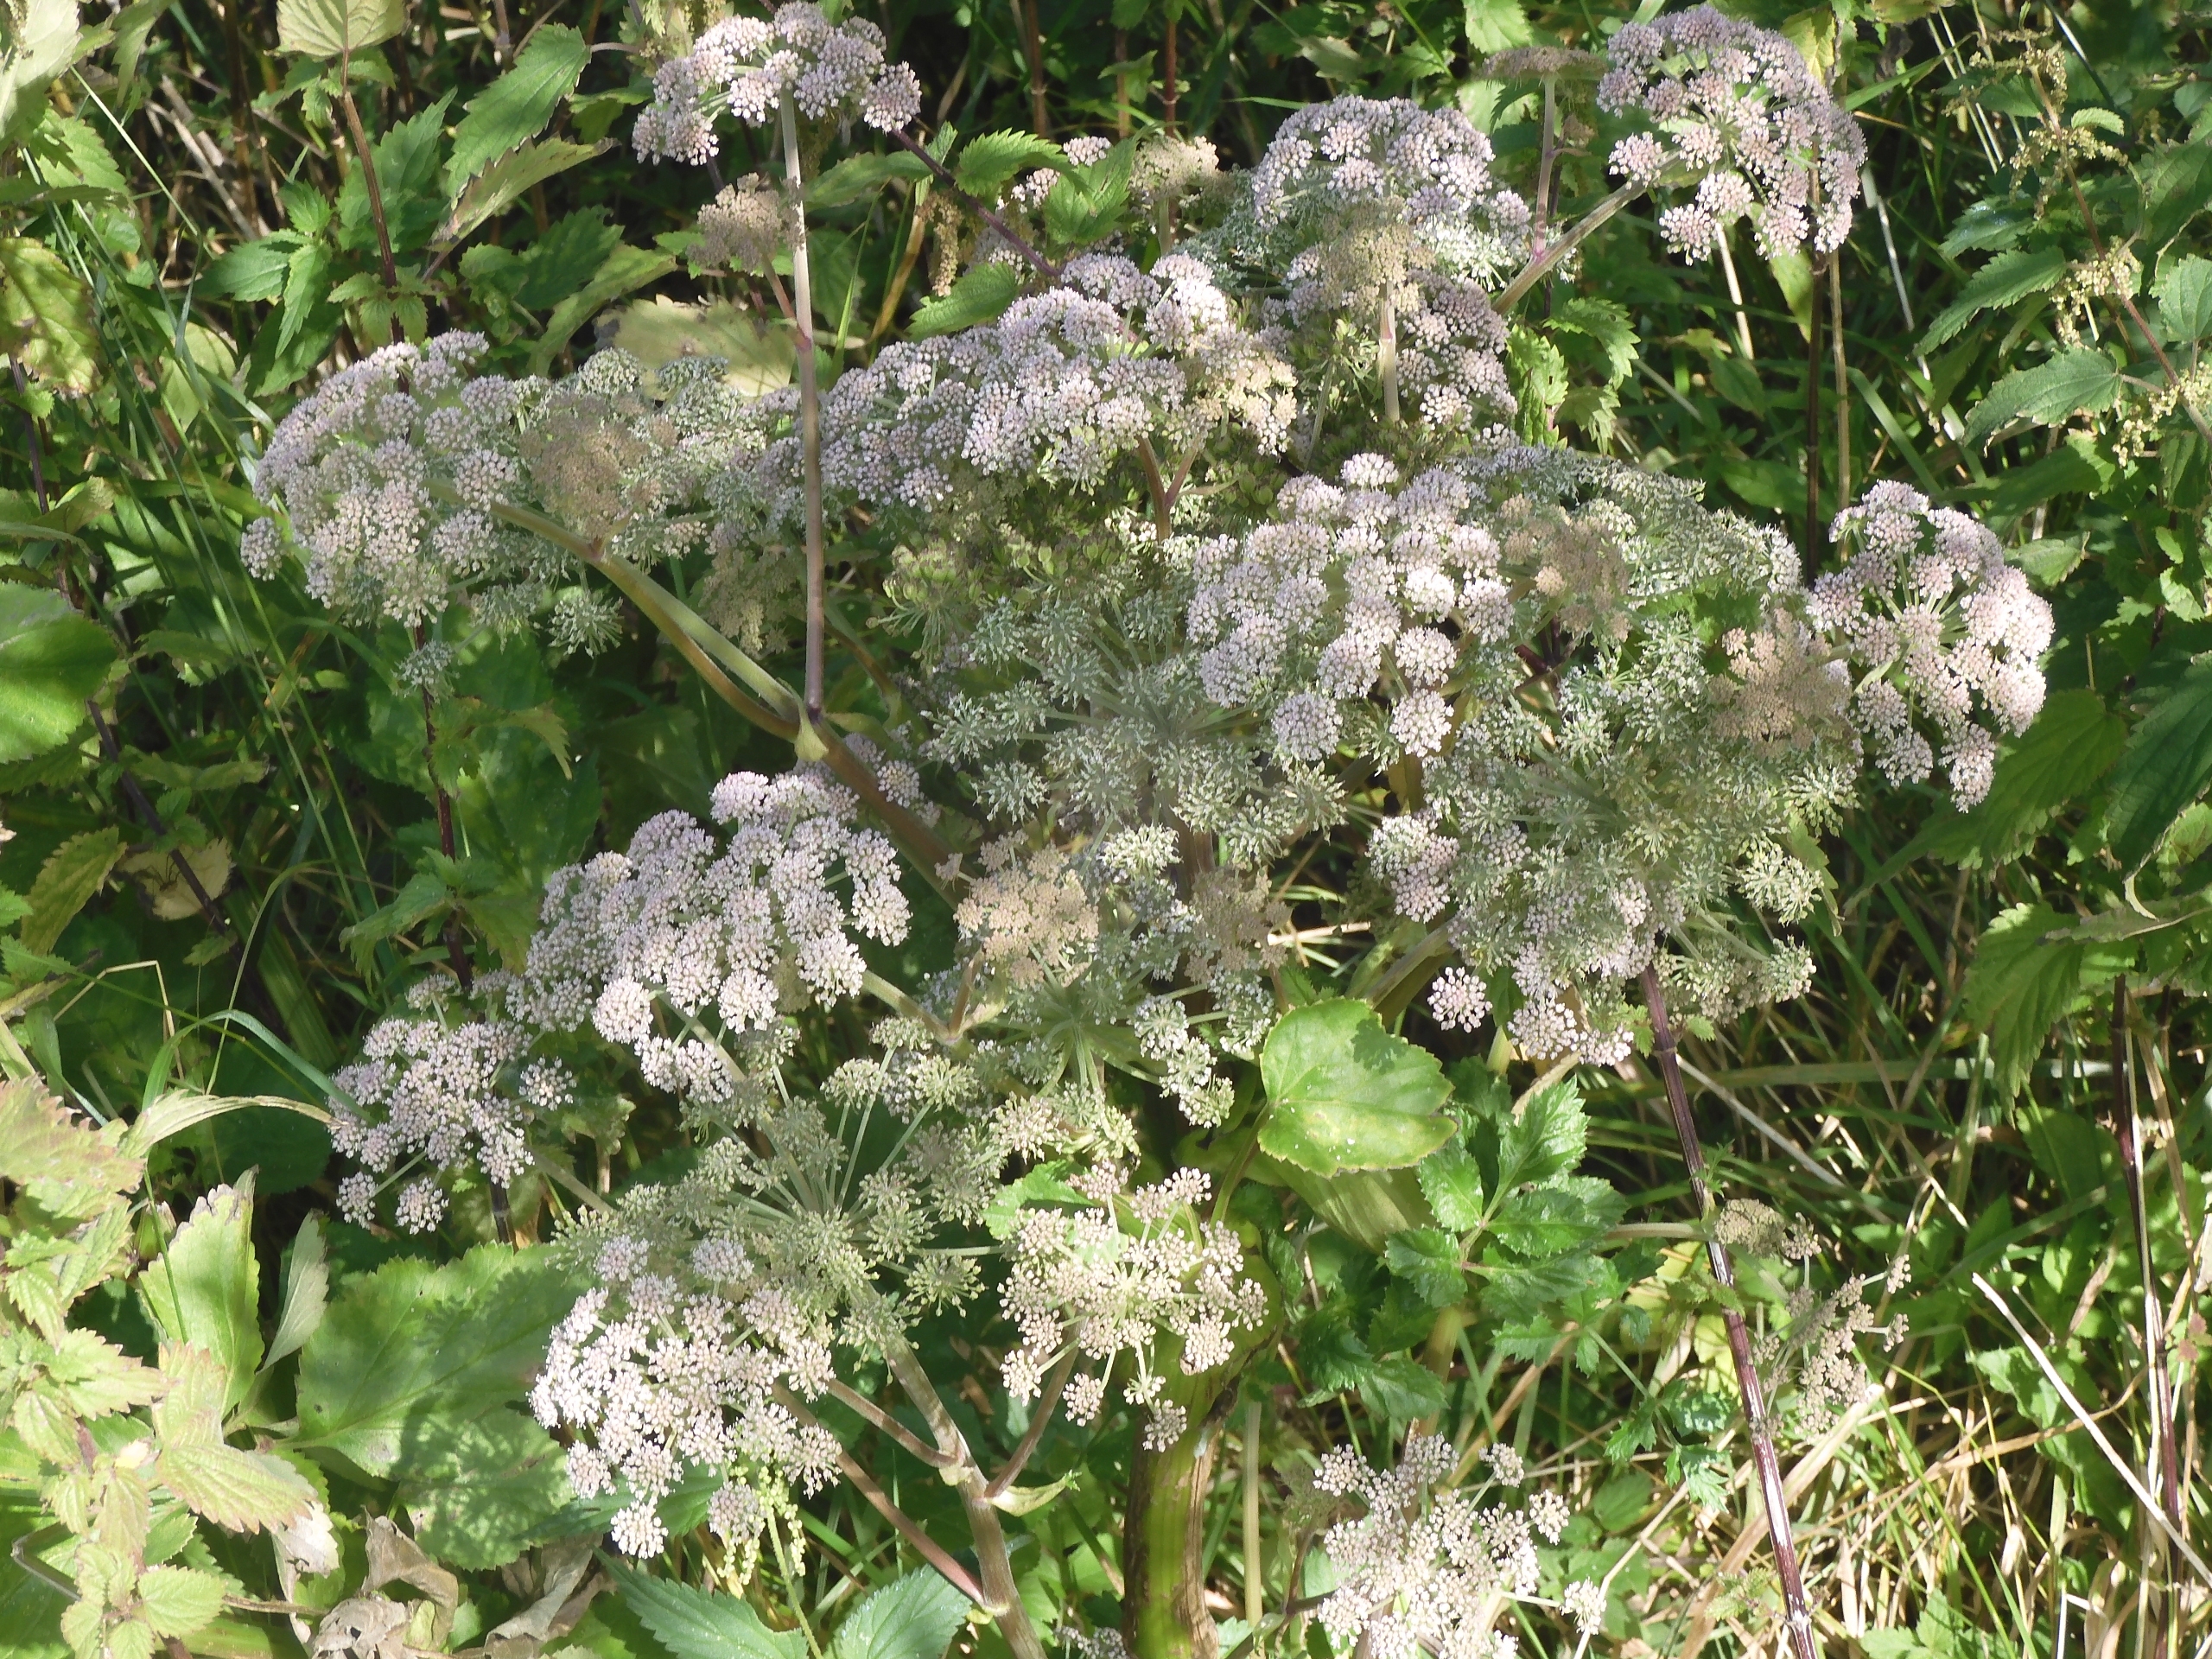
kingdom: Plantae
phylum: Tracheophyta
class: Magnoliopsida
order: Apiales
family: Apiaceae
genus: Angelica
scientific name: Angelica sylvestris
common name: Angelik
